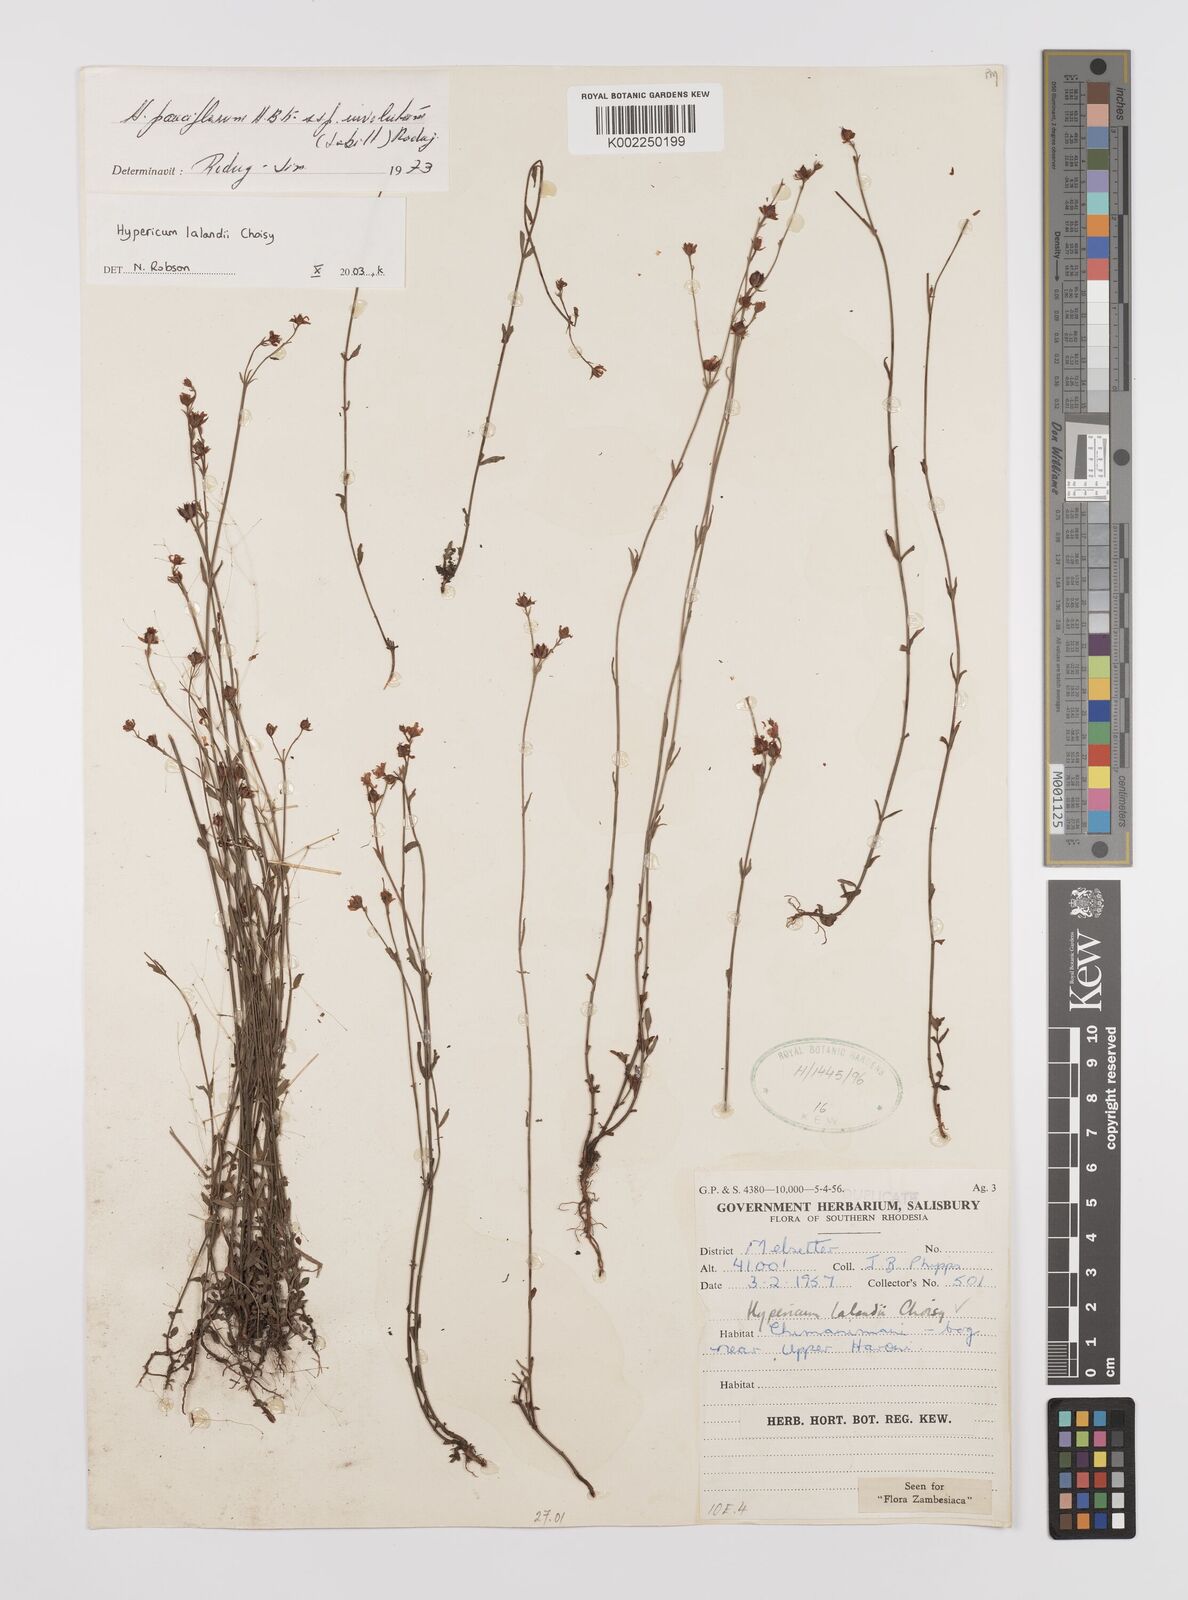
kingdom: Plantae
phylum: Tracheophyta
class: Magnoliopsida
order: Malpighiales
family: Hypericaceae
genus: Hypericum
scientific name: Hypericum lalandii
